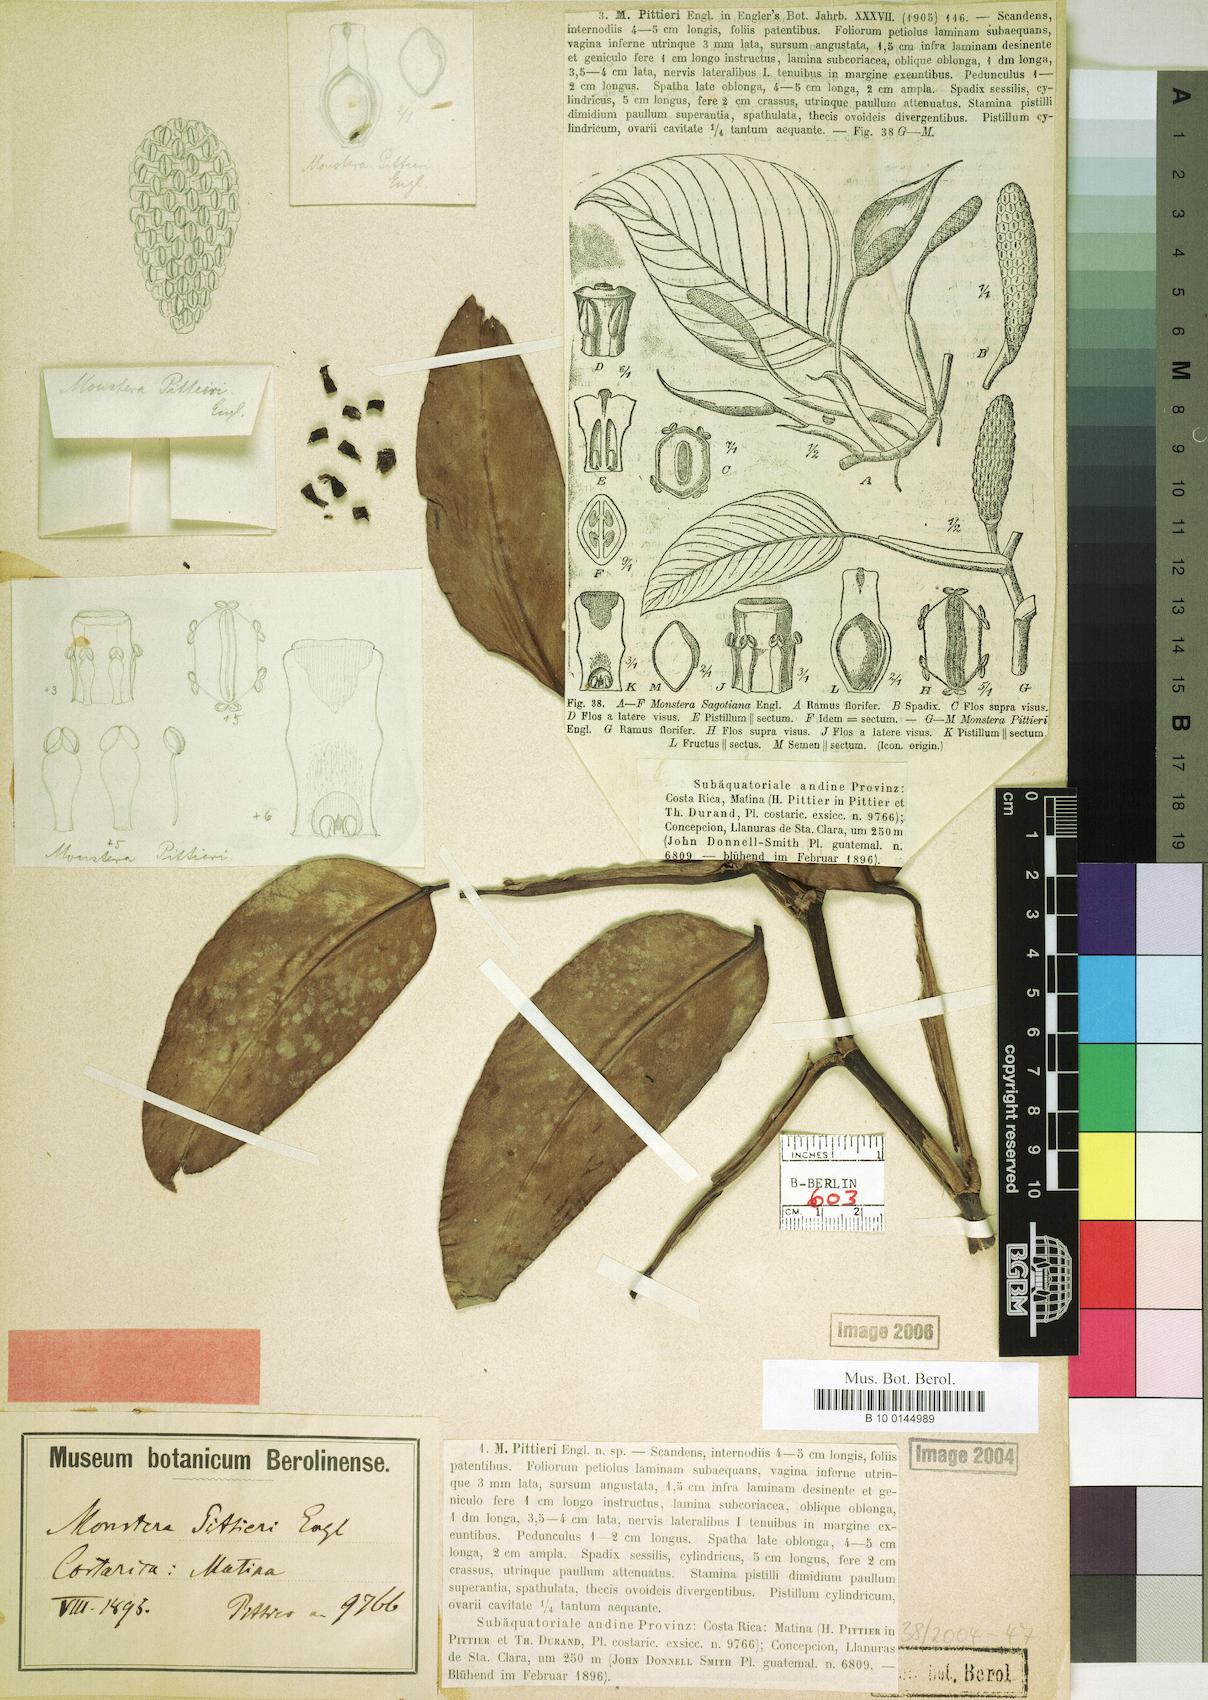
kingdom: Plantae
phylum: Tracheophyta
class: Liliopsida
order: Alismatales
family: Araceae
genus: Monstera
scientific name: Monstera pittieri
